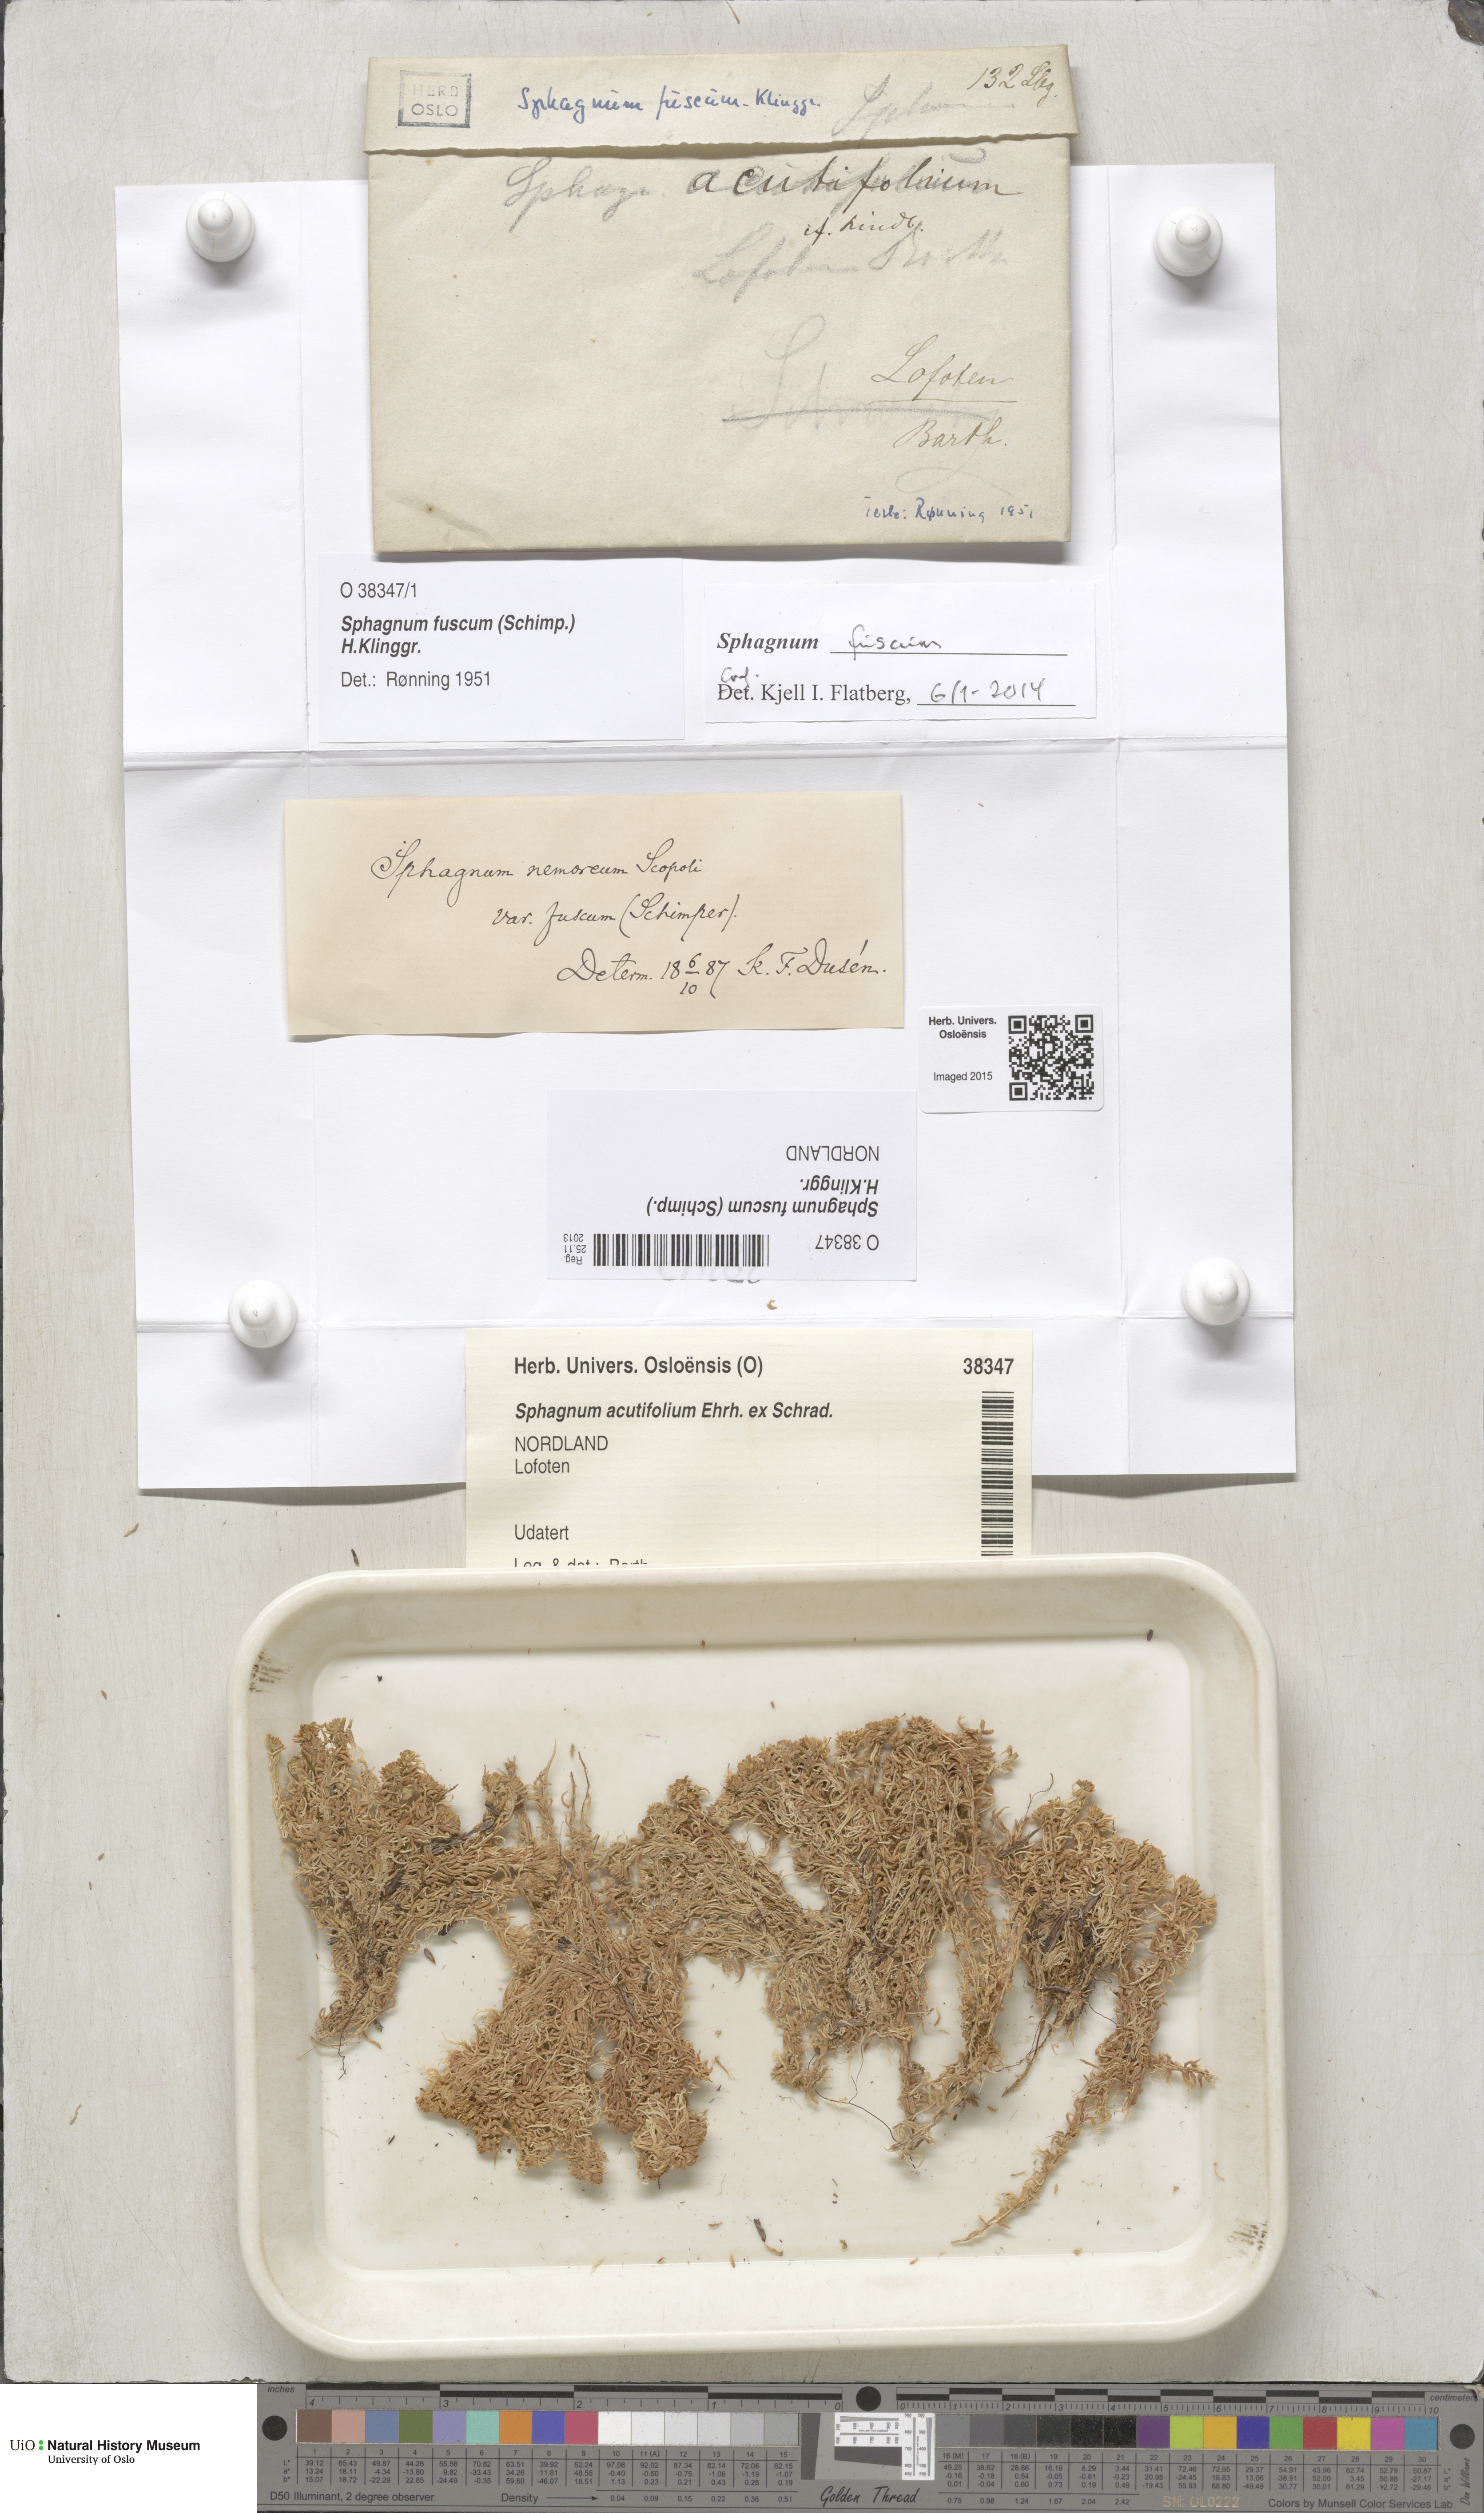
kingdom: Plantae
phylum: Bryophyta
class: Sphagnopsida
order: Sphagnales
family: Sphagnaceae
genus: Sphagnum
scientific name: Sphagnum fuscum
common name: Brown peat moss
